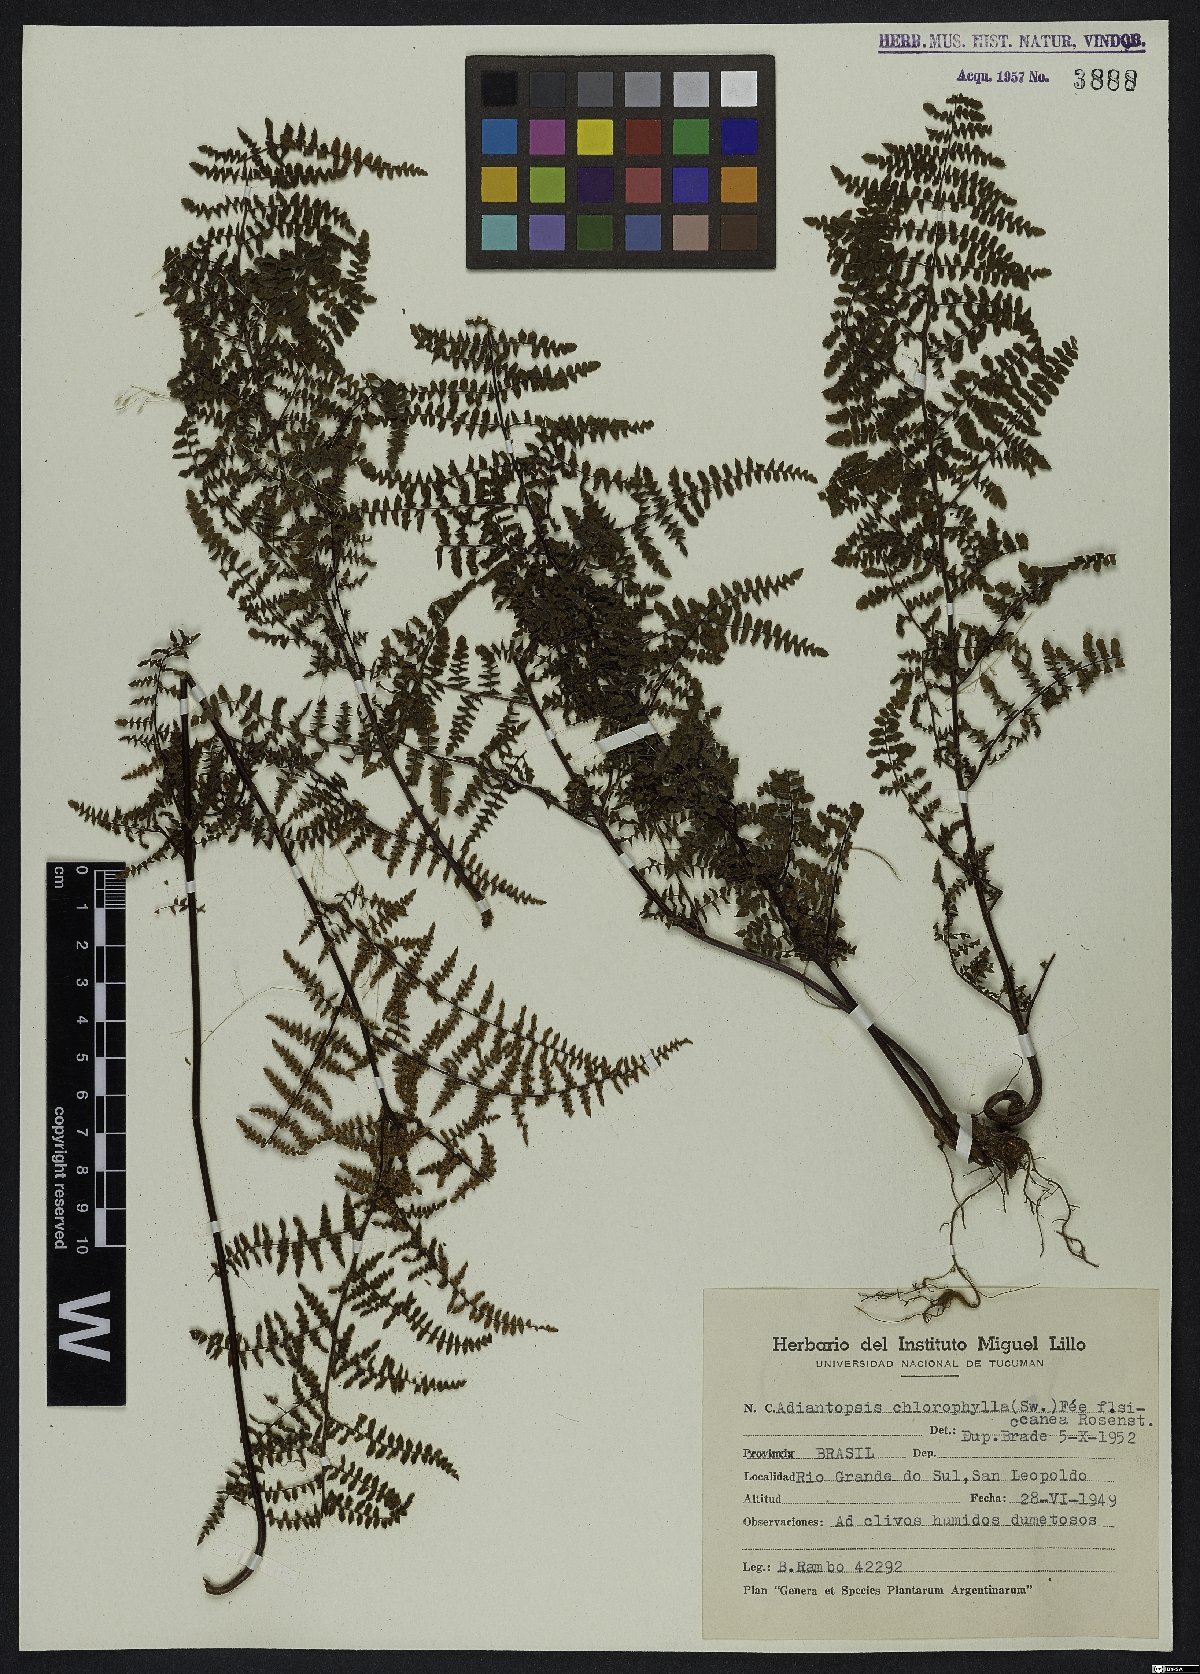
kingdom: Plantae
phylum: Tracheophyta
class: Polypodiopsida
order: Polypodiales
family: Pteridaceae
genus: Adiantopsis
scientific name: Adiantopsis chlorophylla
